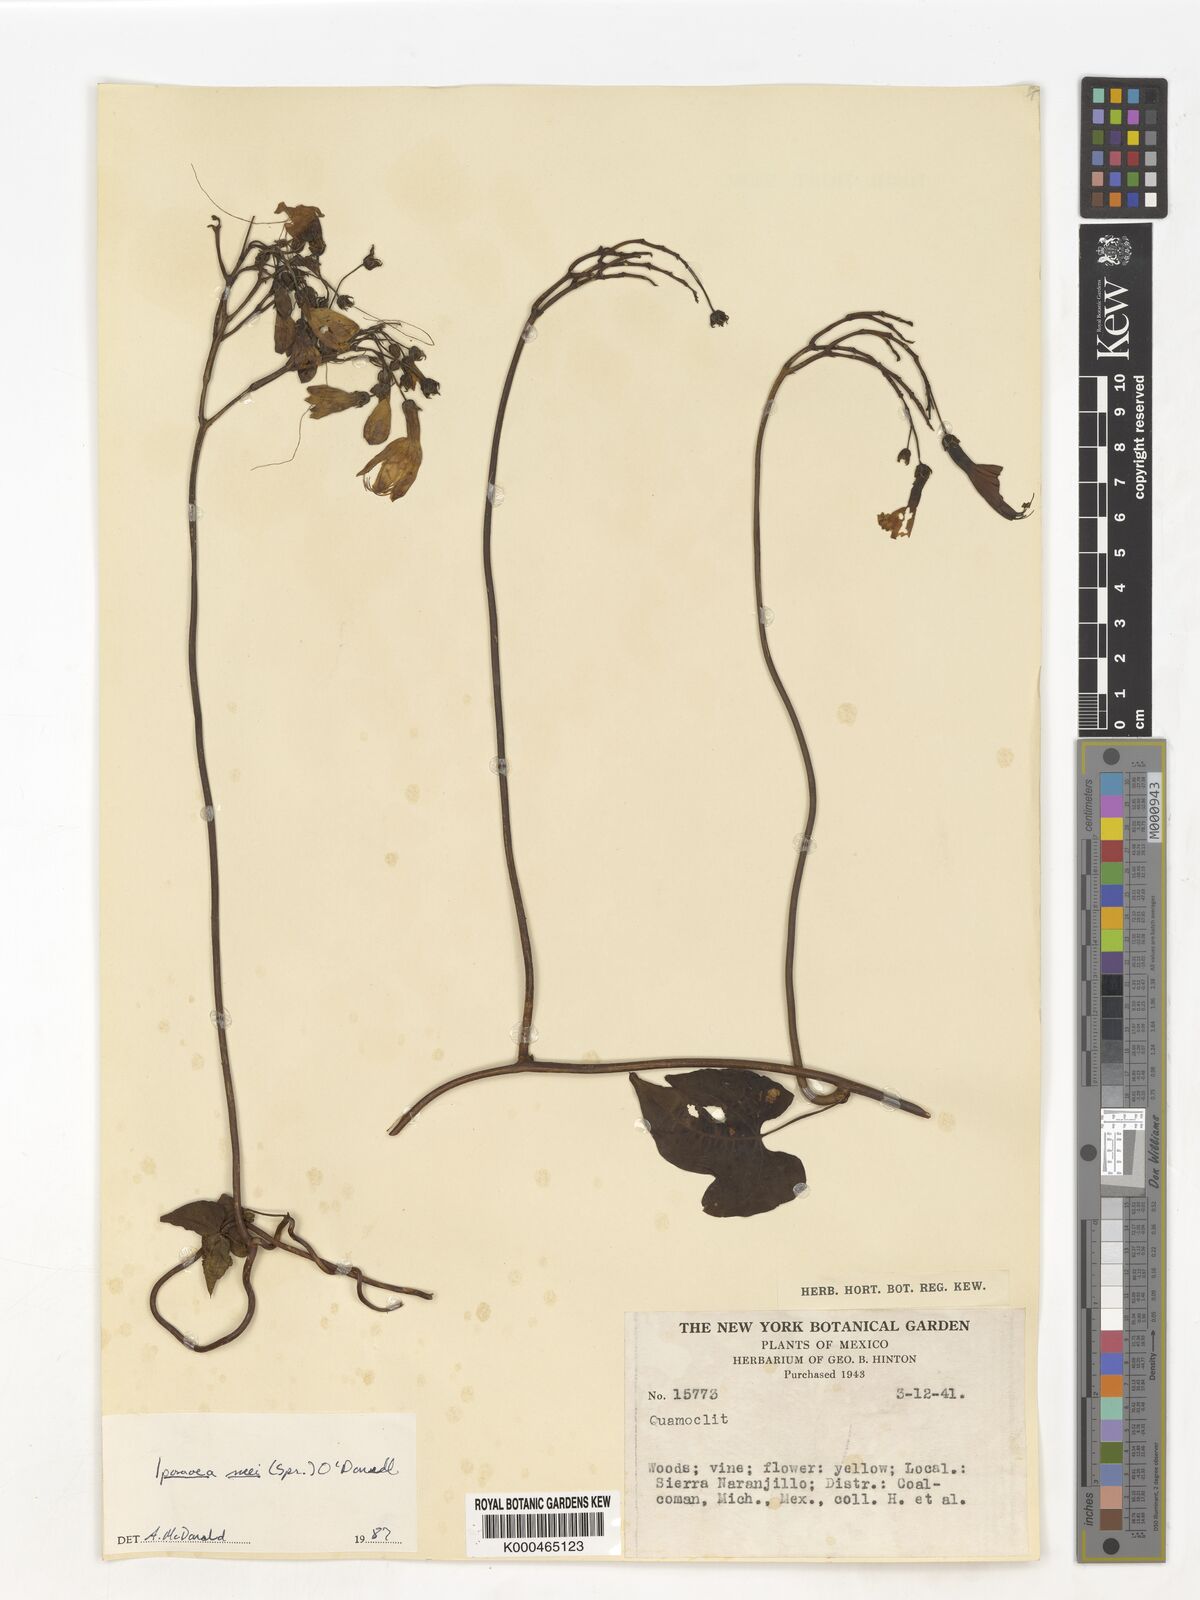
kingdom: Plantae
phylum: Tracheophyta
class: Magnoliopsida
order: Solanales
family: Convolvulaceae
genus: Ipomoea
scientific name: Ipomoea
